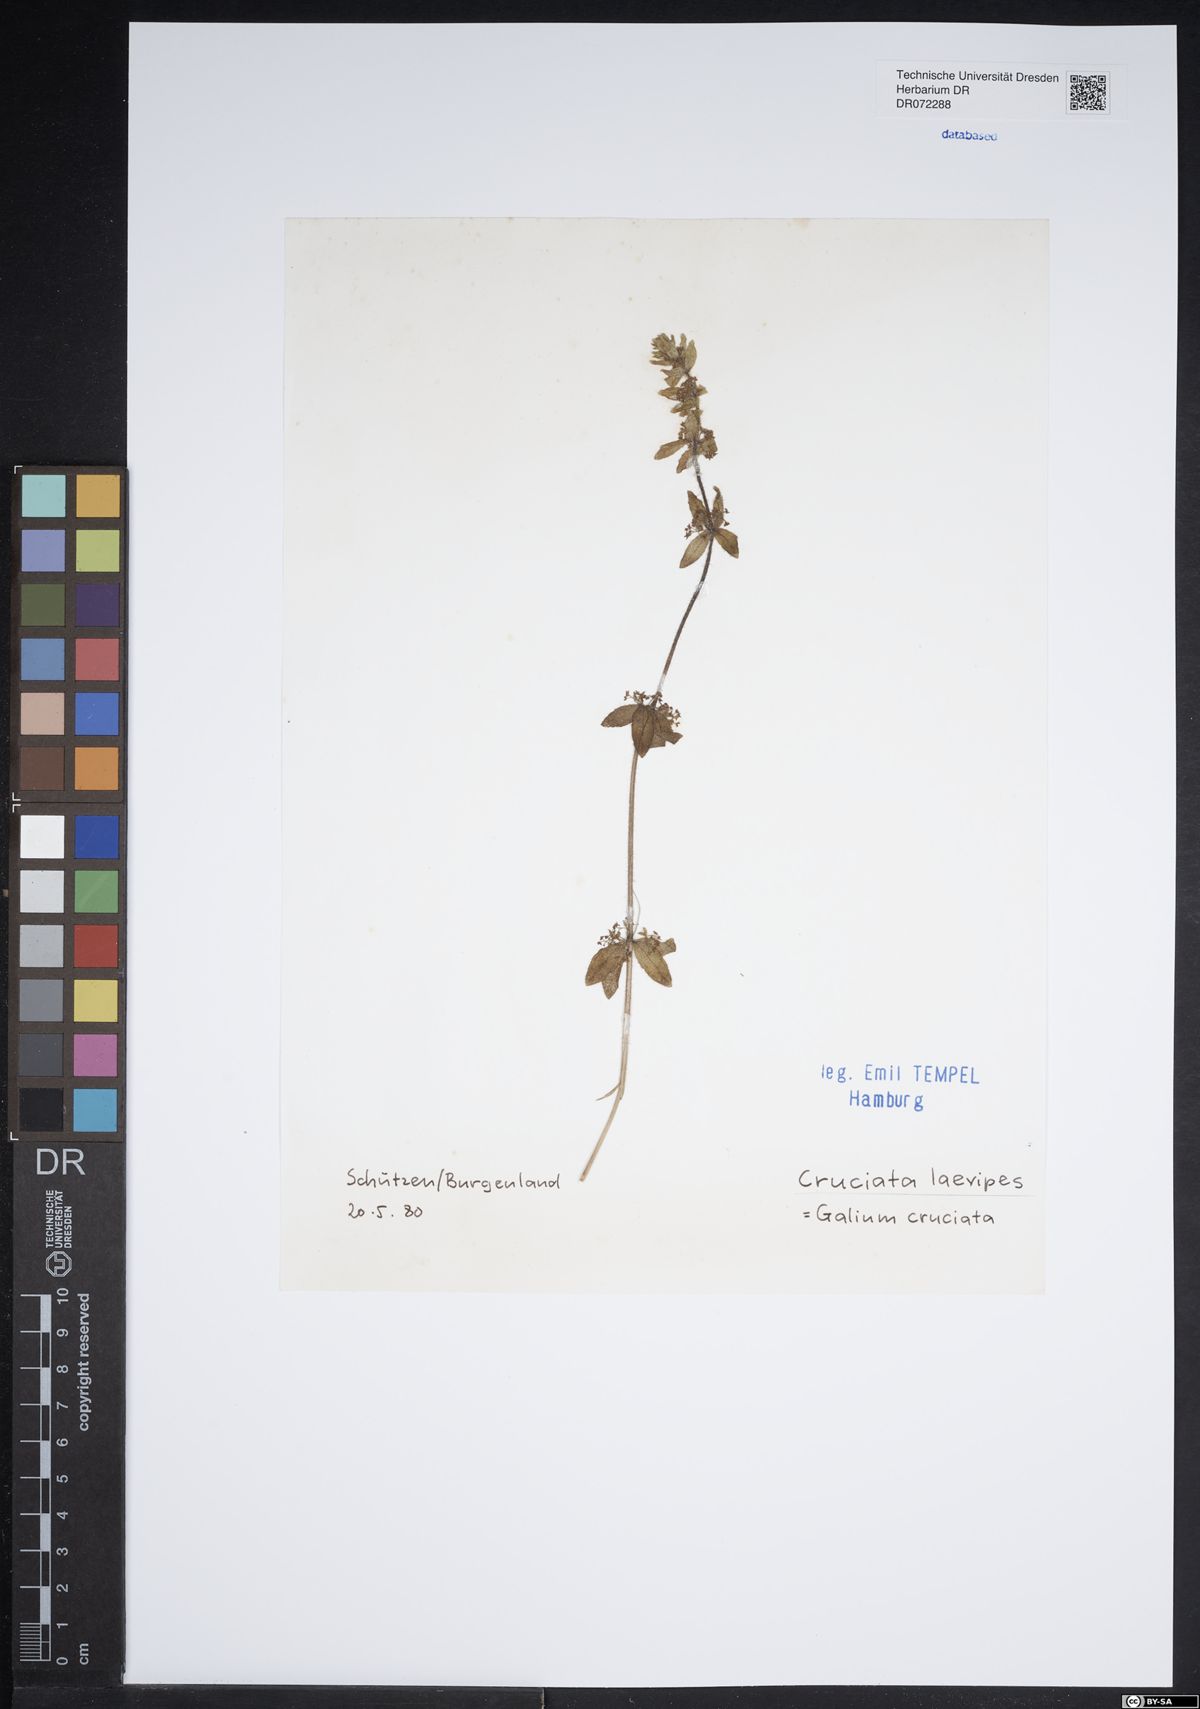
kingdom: Plantae
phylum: Tracheophyta
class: Magnoliopsida
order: Gentianales
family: Rubiaceae
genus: Cruciata
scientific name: Cruciata laevipes
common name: Crosswort
